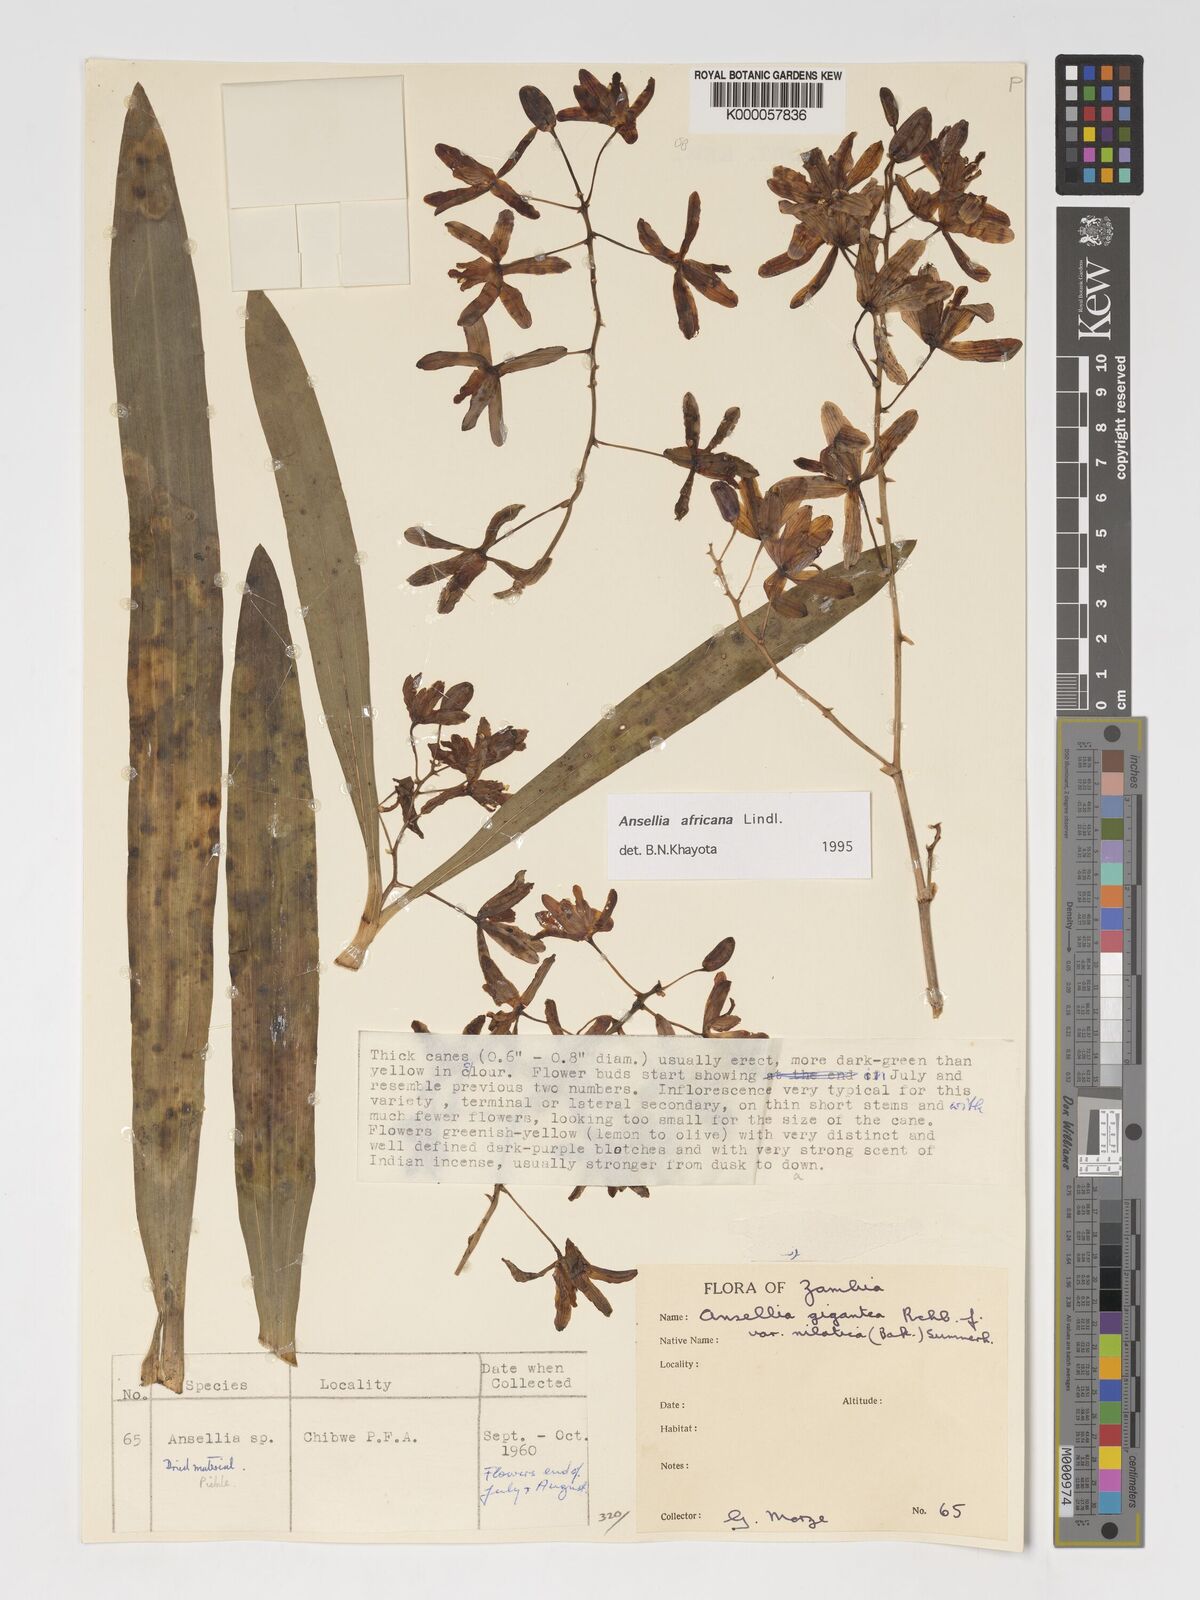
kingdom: Plantae
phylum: Tracheophyta
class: Liliopsida
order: Asparagales
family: Orchidaceae
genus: Ansellia
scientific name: Ansellia africana
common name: African ansellia
